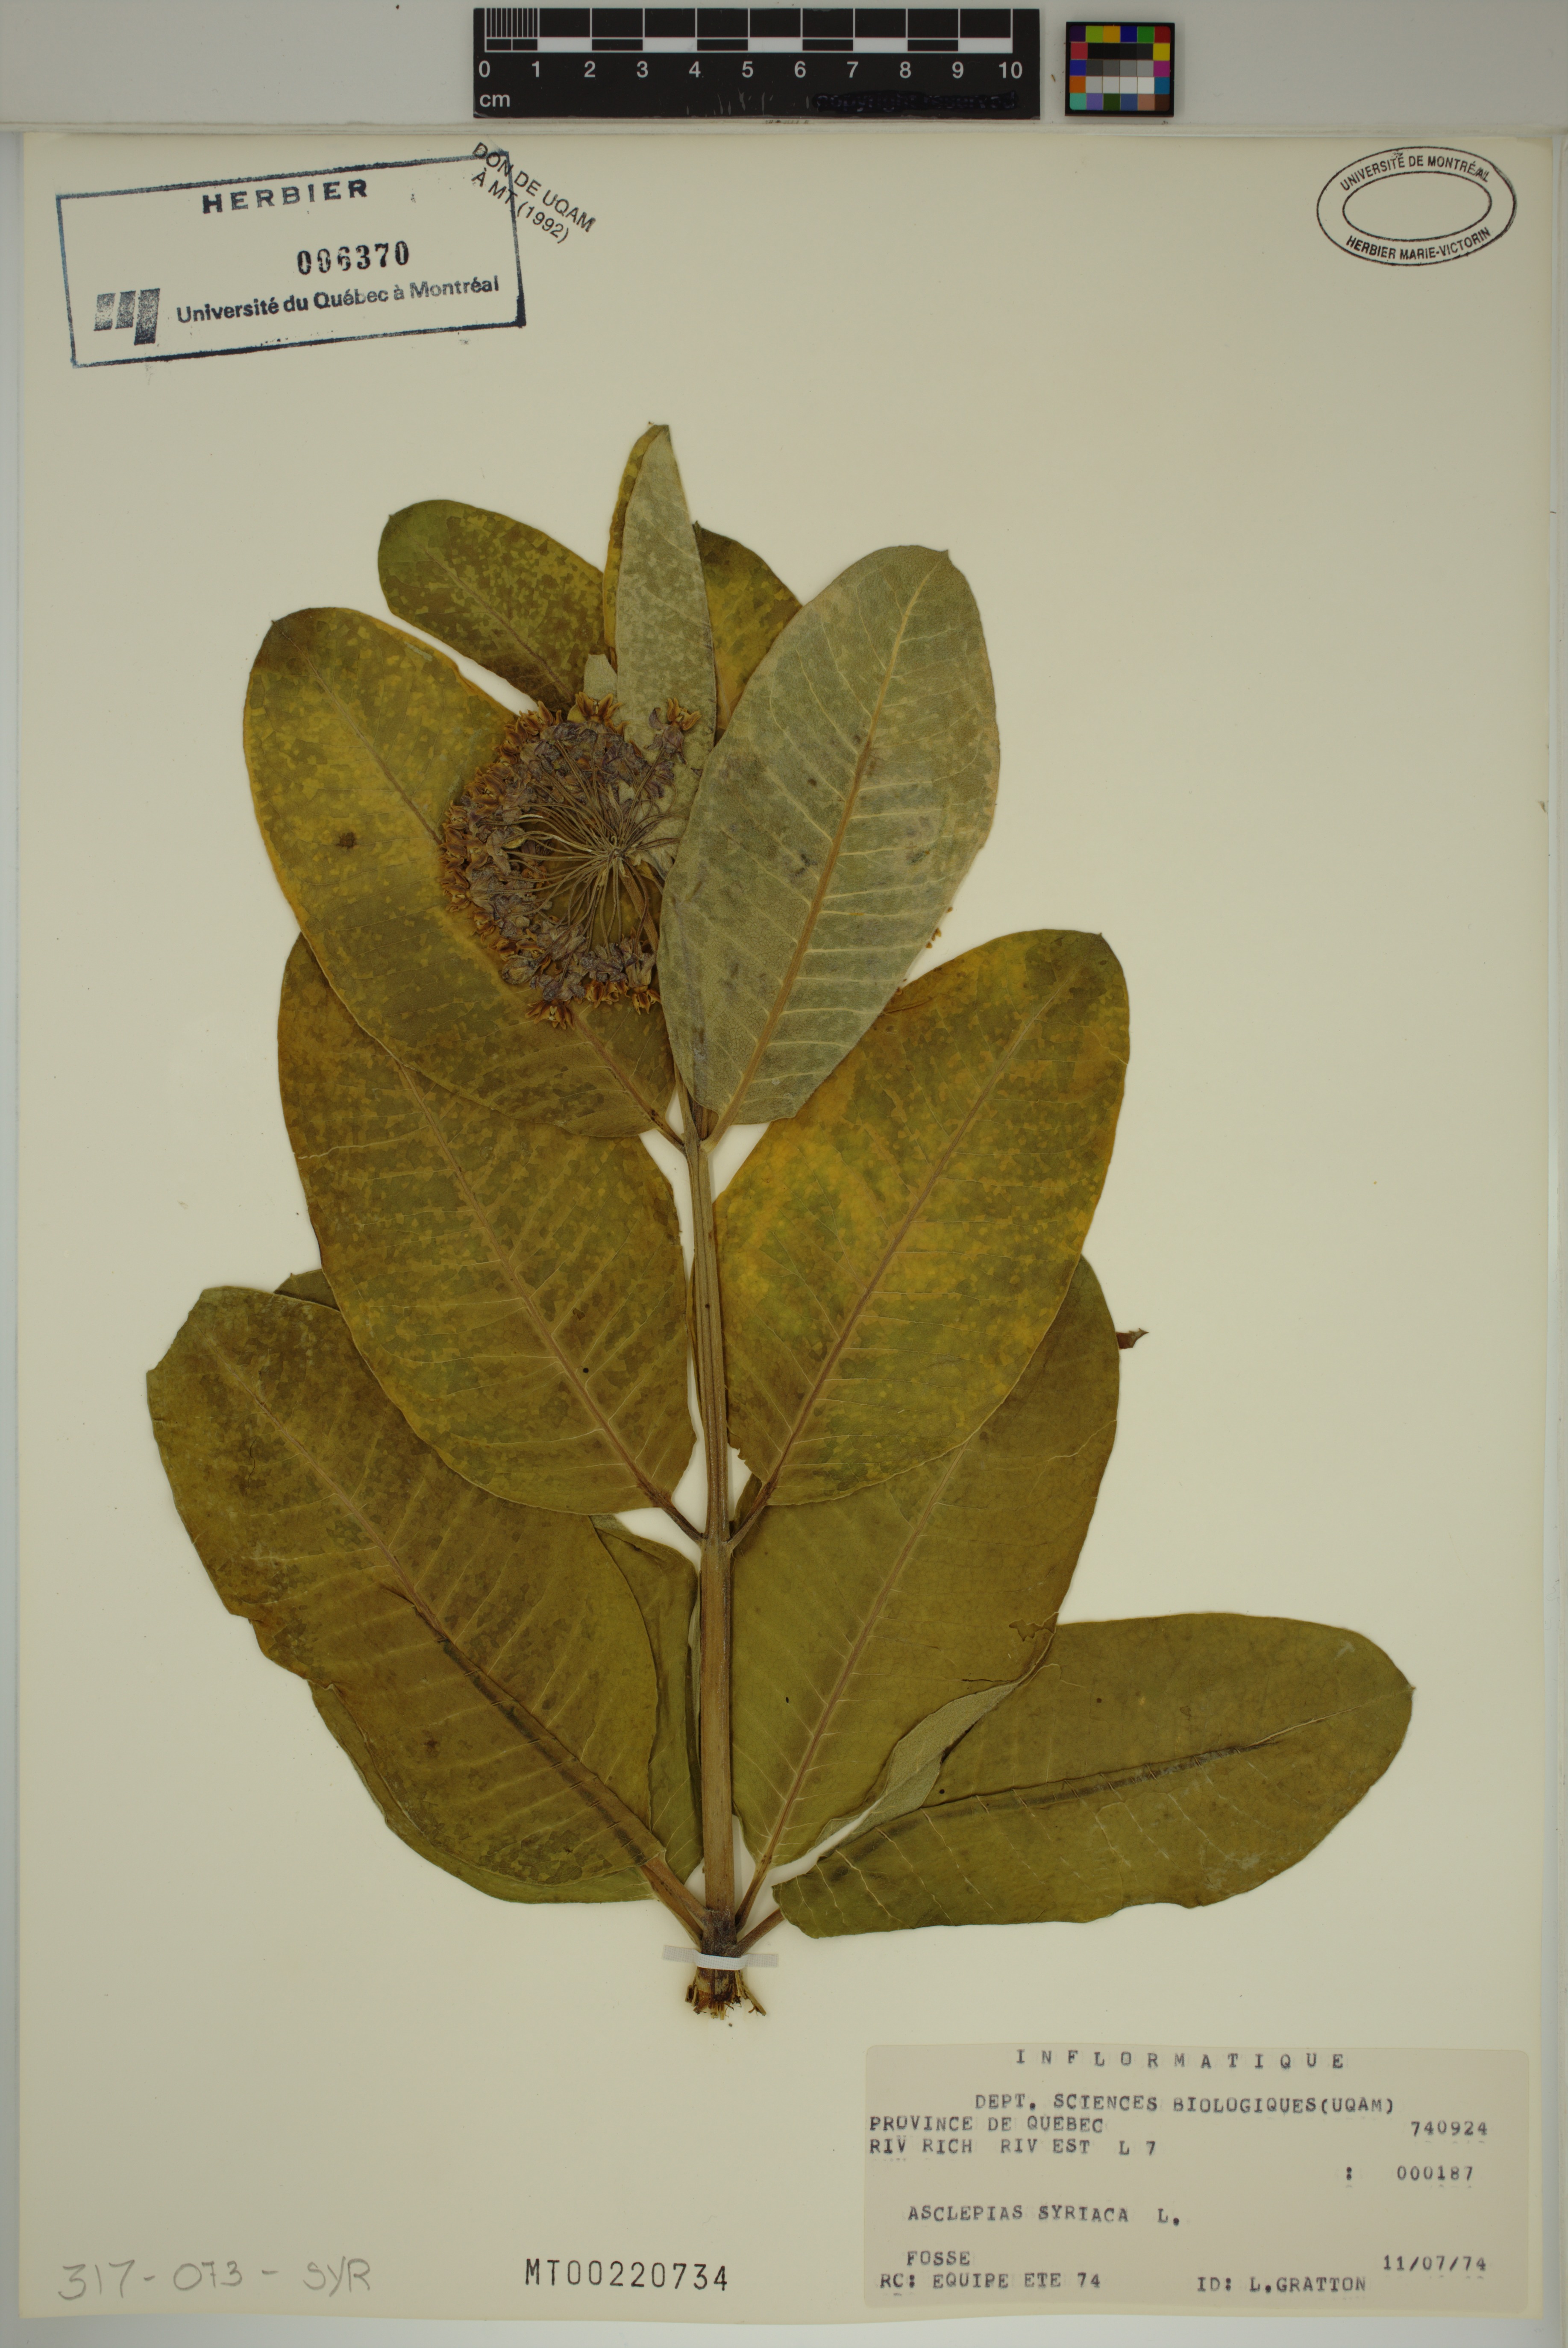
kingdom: Plantae
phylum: Tracheophyta
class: Magnoliopsida
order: Gentianales
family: Apocynaceae
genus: Asclepias
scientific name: Asclepias syriaca
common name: Common milkweed
